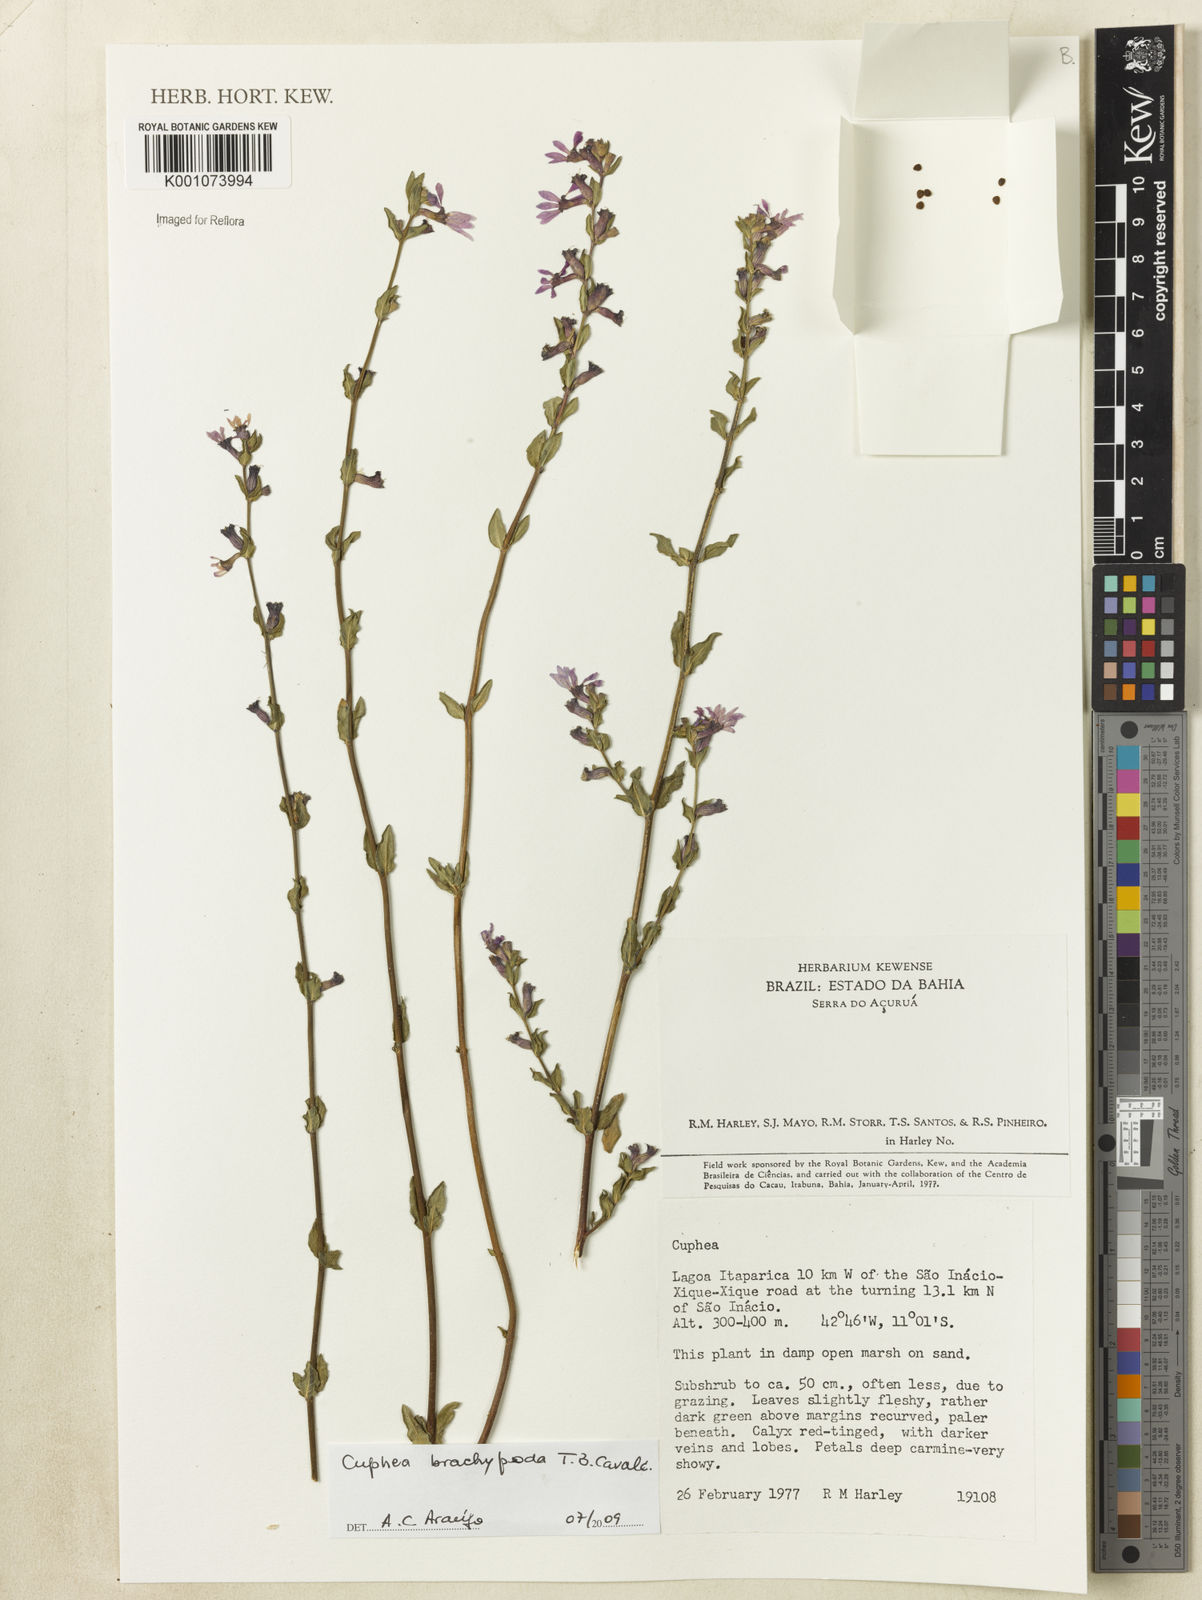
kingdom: Plantae
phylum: Tracheophyta
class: Magnoliopsida
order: Myrtales
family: Lythraceae
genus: Cuphea
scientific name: Cuphea brachypoda
